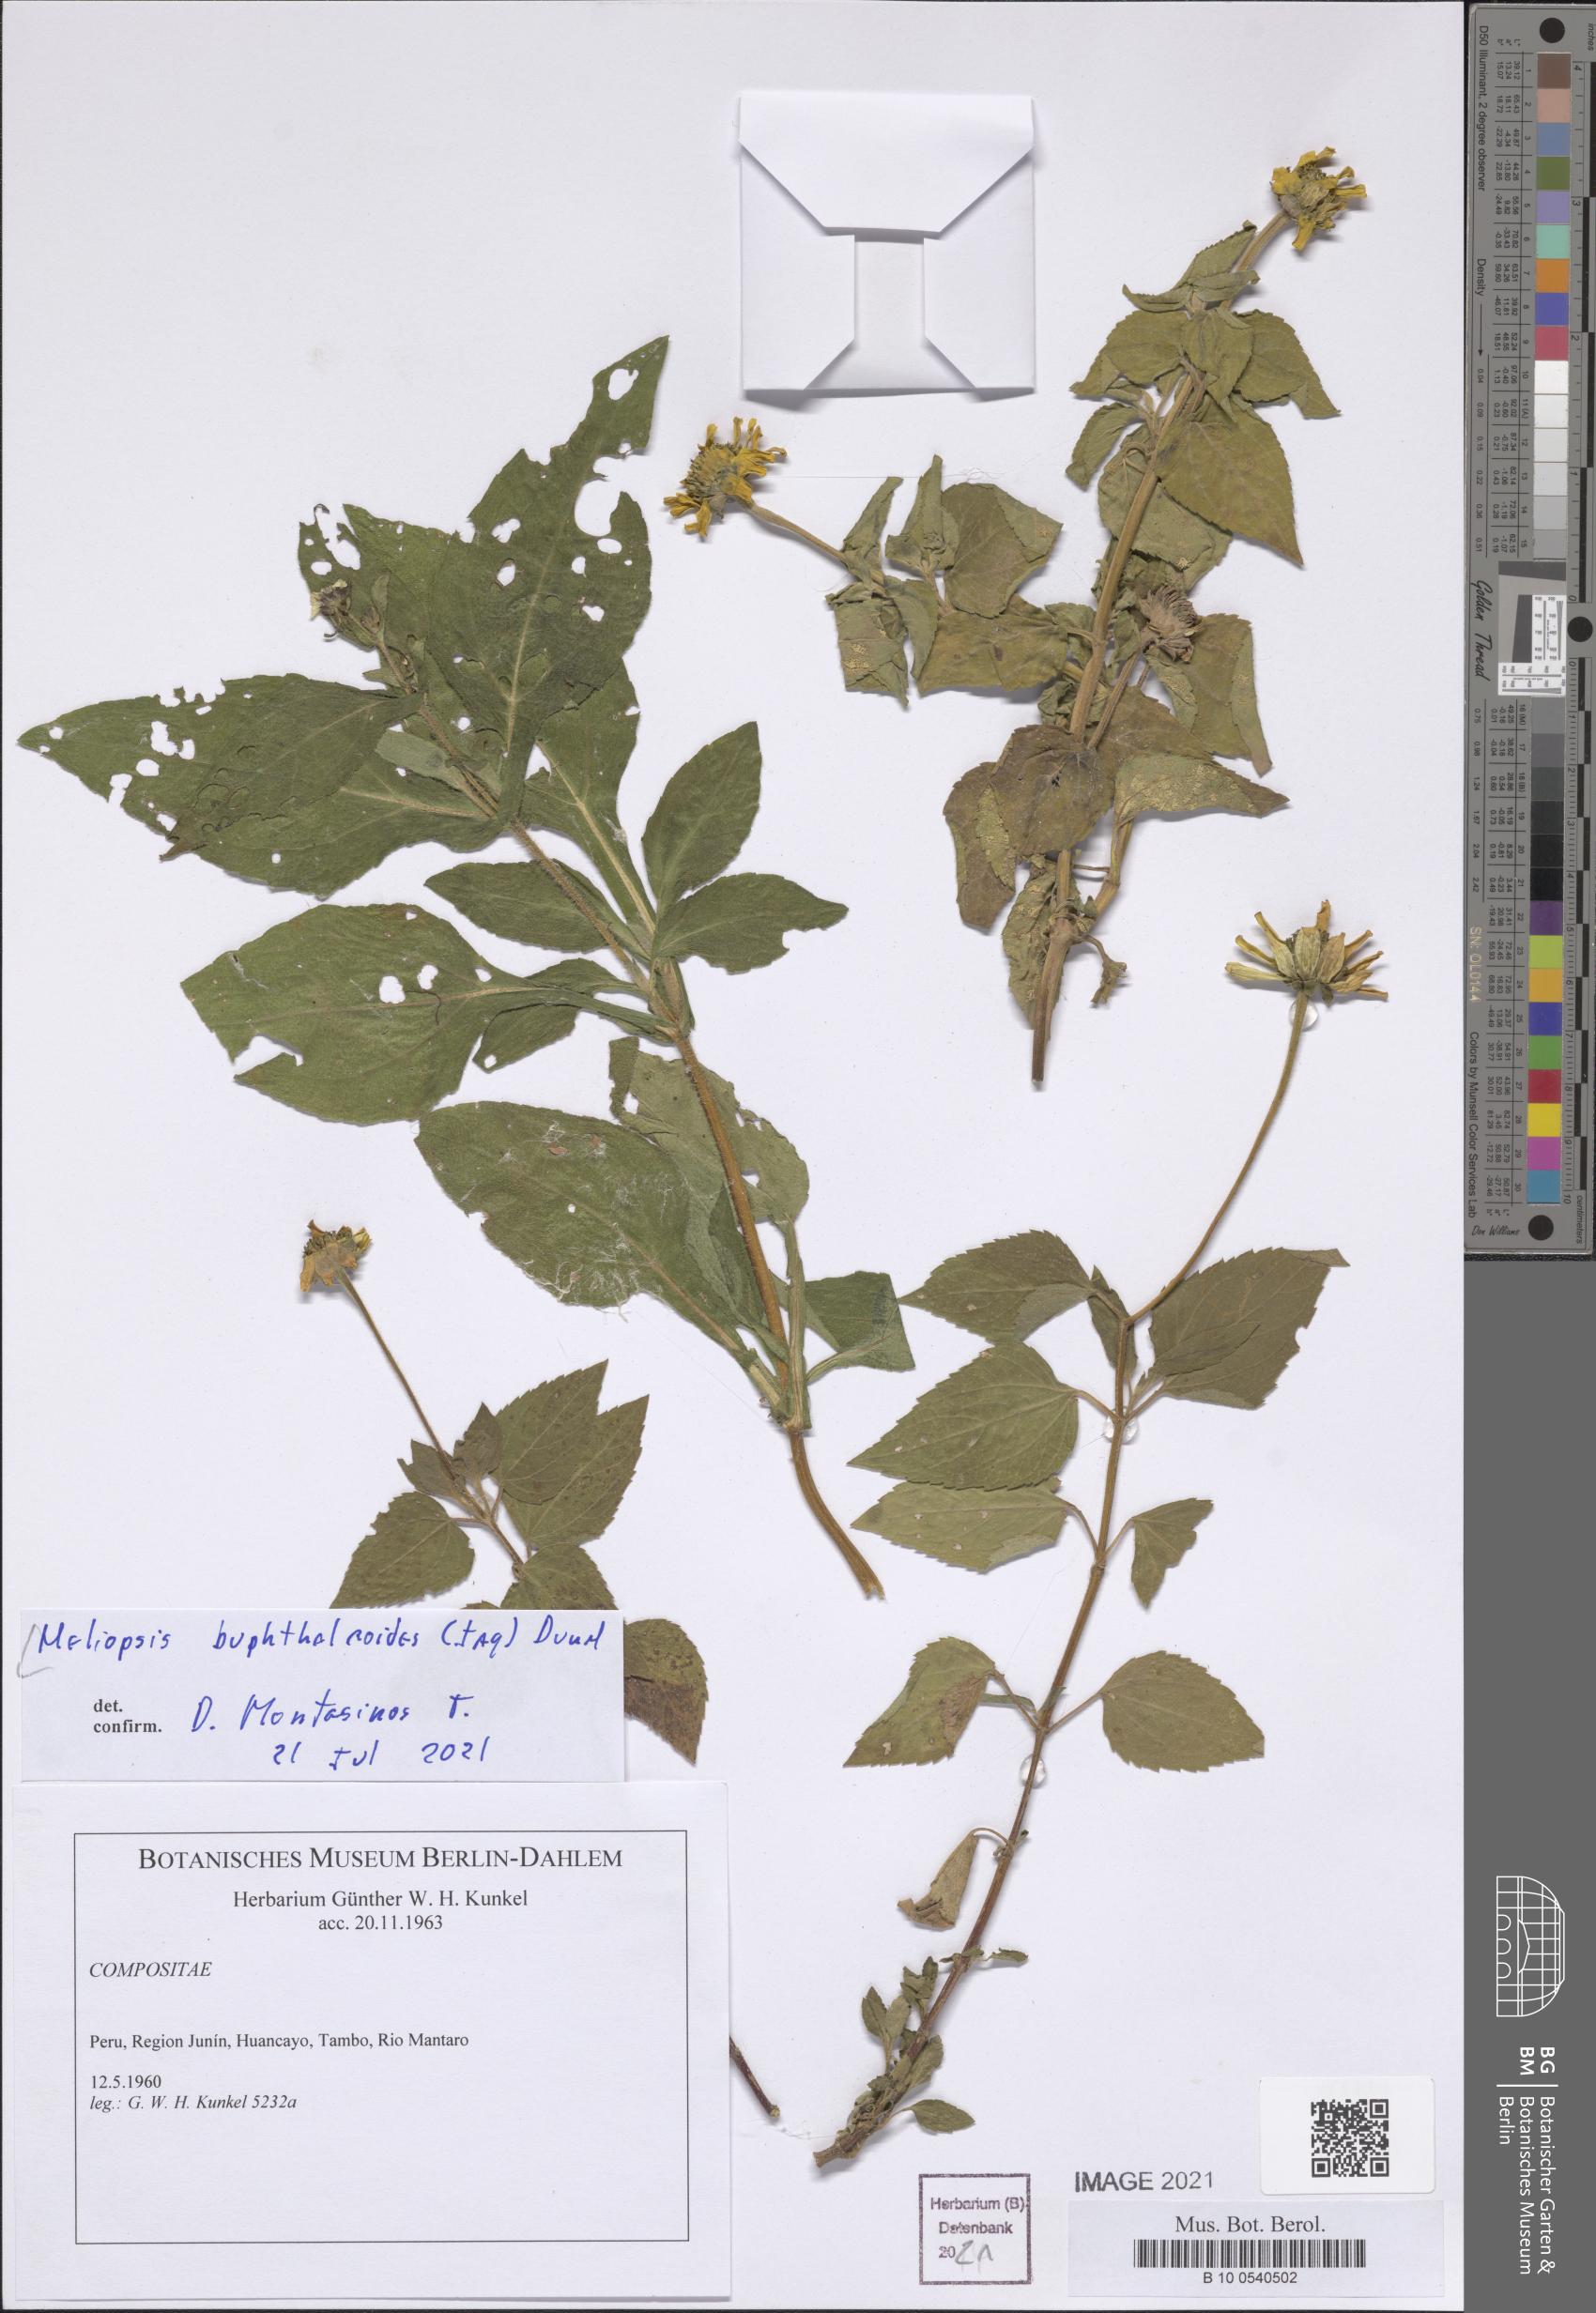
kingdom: Plantae
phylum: Tracheophyta
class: Magnoliopsida
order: Asterales
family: Asteraceae
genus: Heliopsis
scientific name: Heliopsis buphthalmoides
